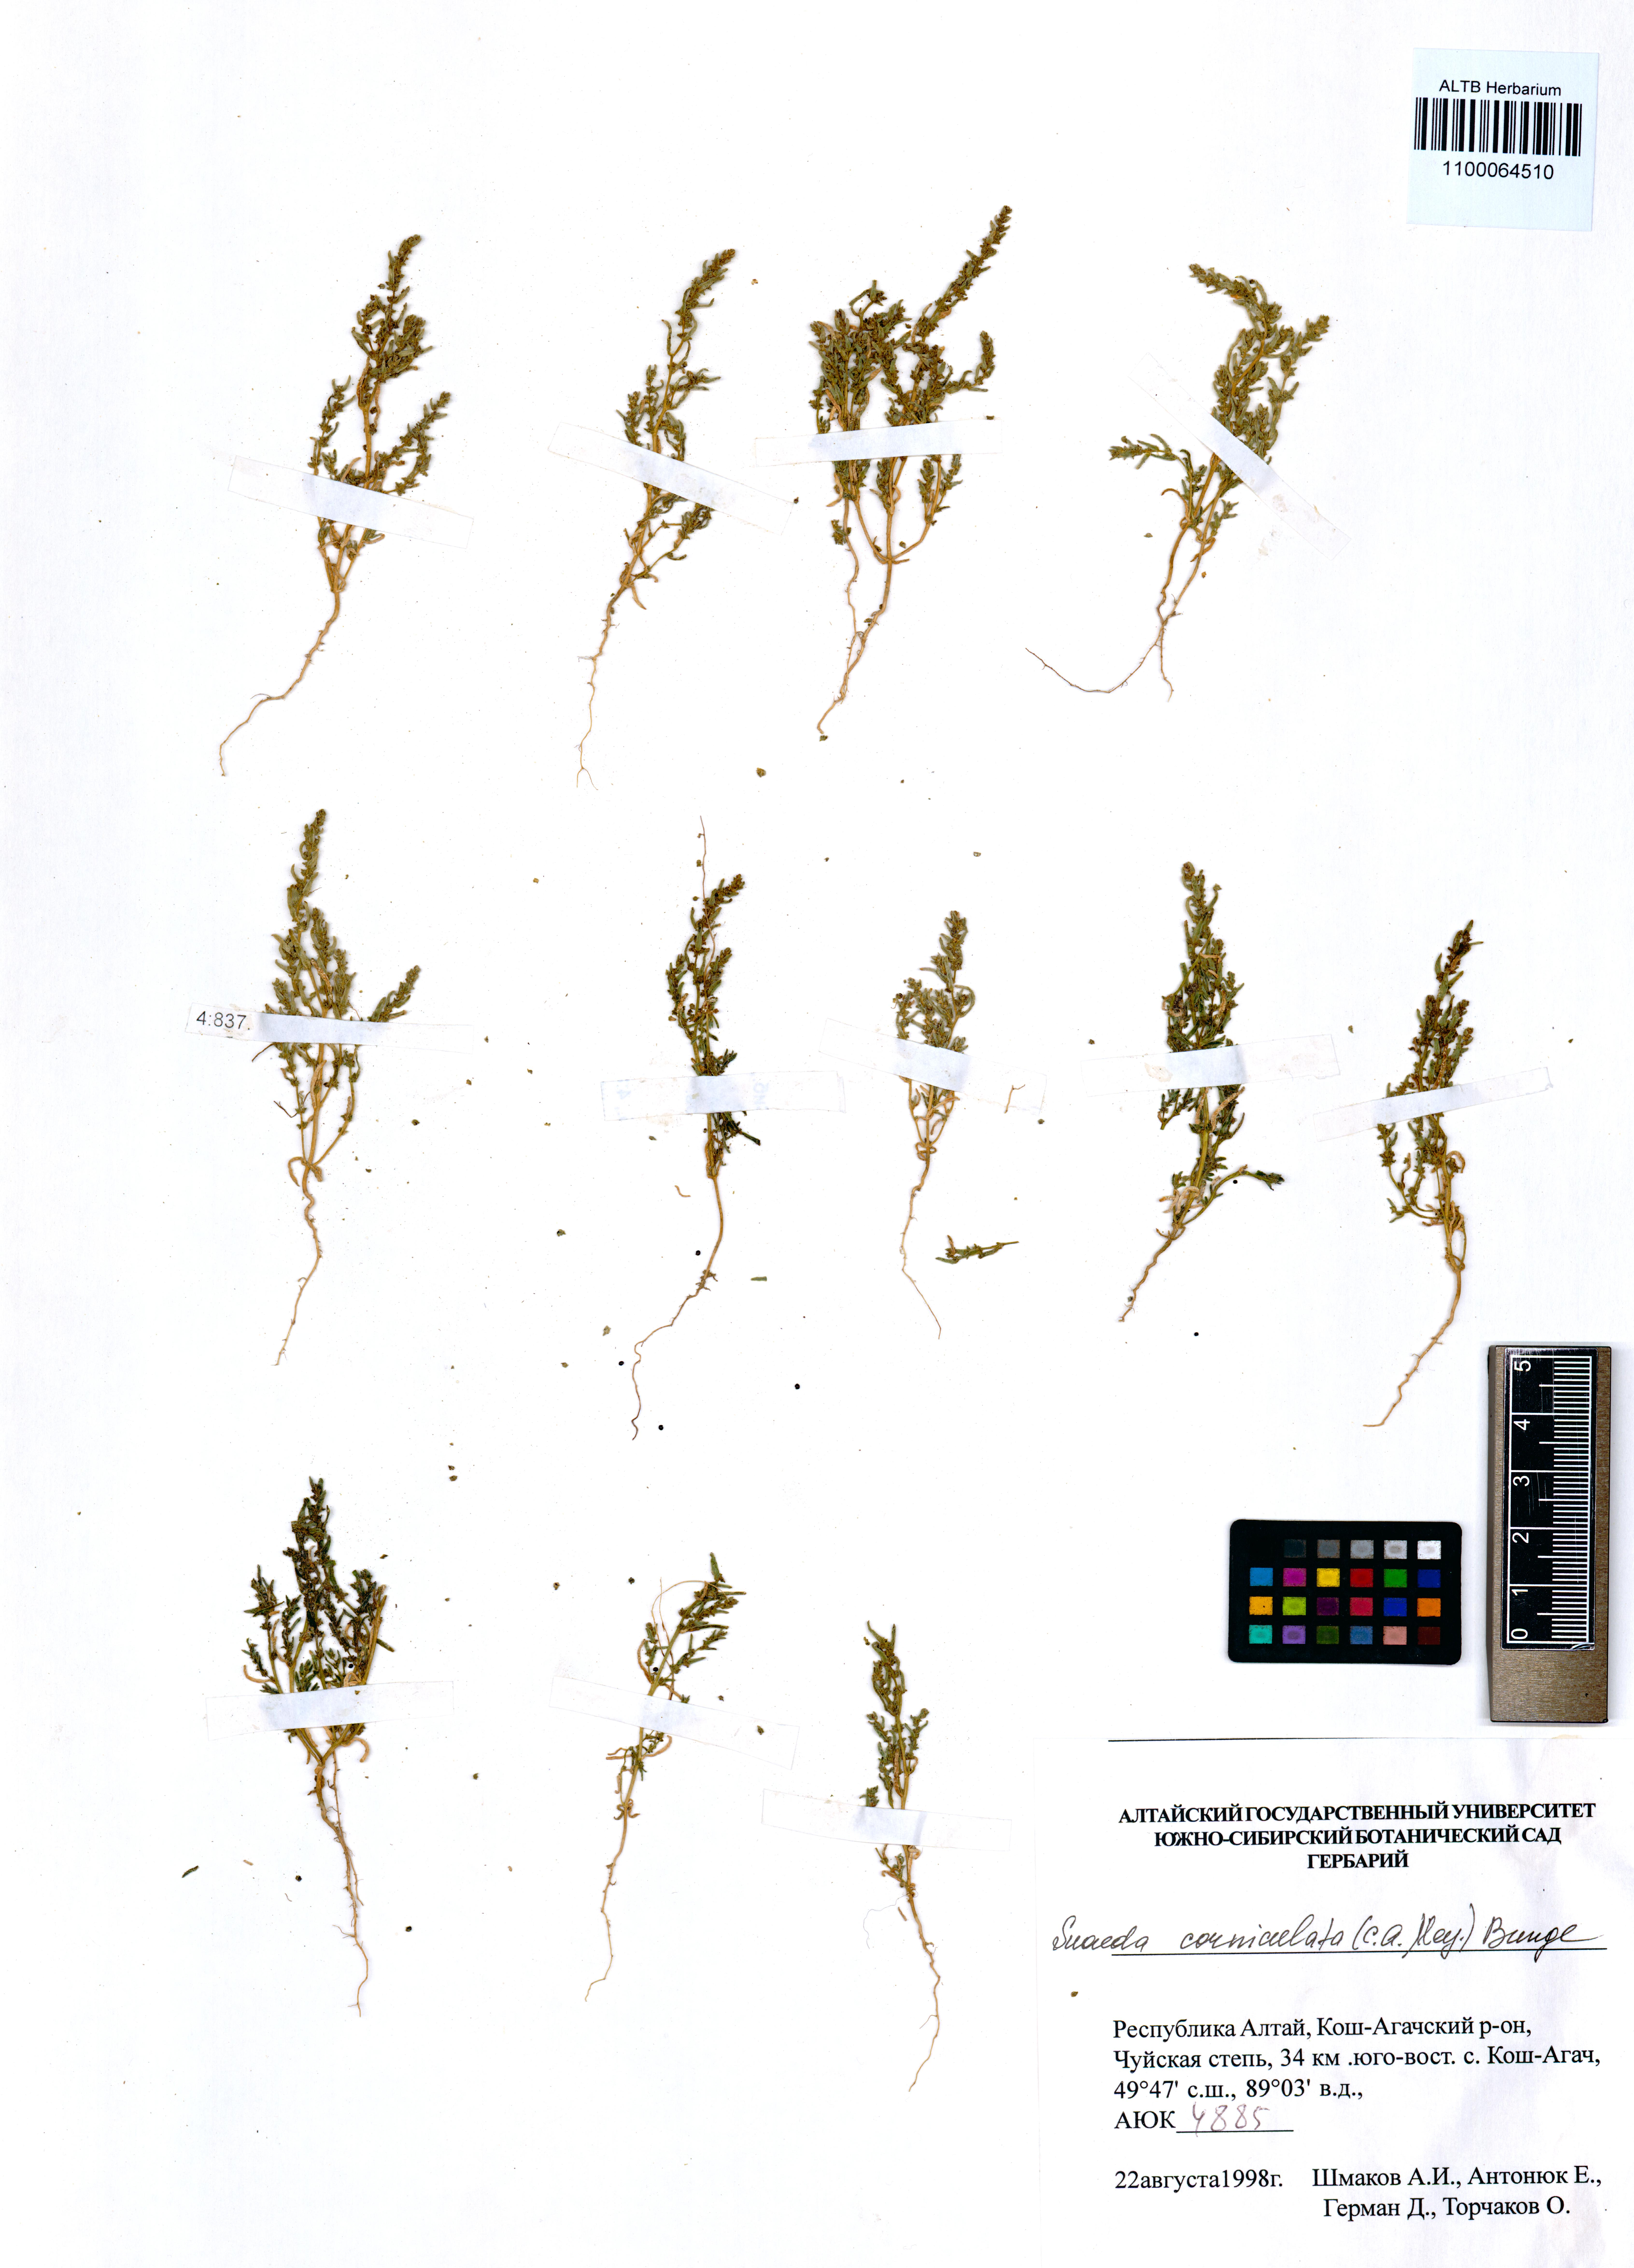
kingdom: Plantae
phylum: Tracheophyta
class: Magnoliopsida
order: Caryophyllales
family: Amaranthaceae
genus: Suaeda
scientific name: Suaeda corniculata
